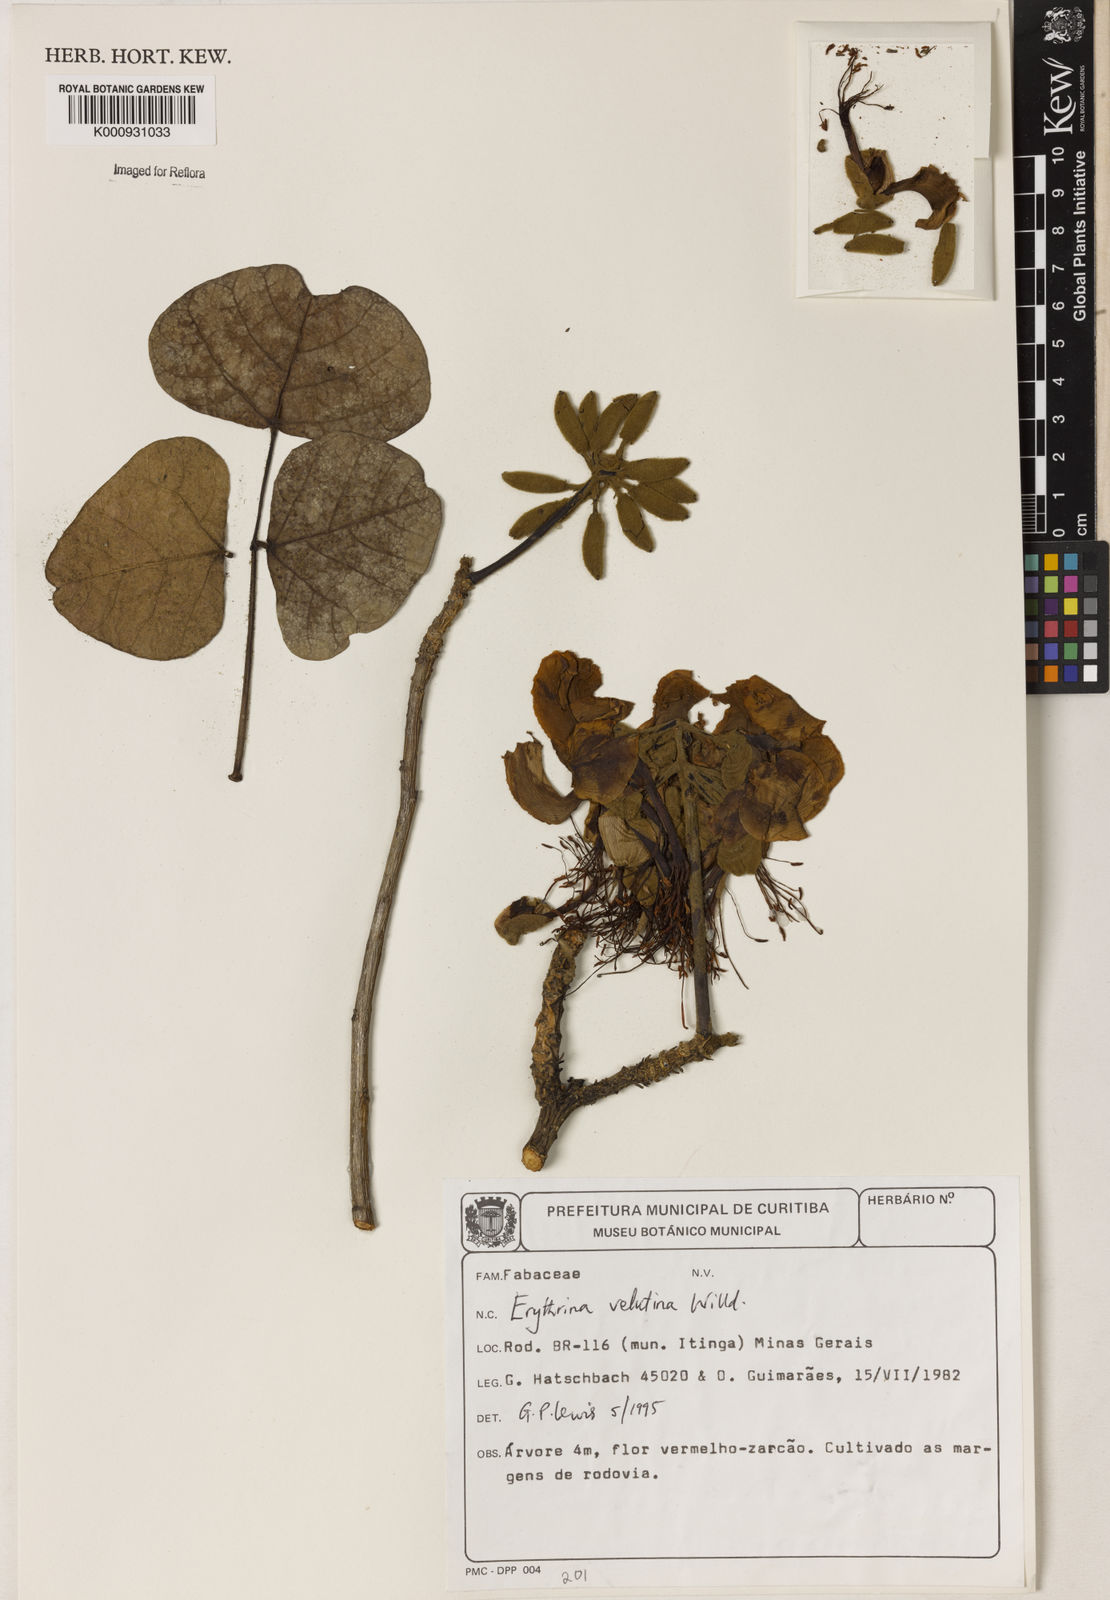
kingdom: Plantae
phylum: Tracheophyta
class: Magnoliopsida
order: Fabales
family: Fabaceae
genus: Erythrina
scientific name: Erythrina velutina
